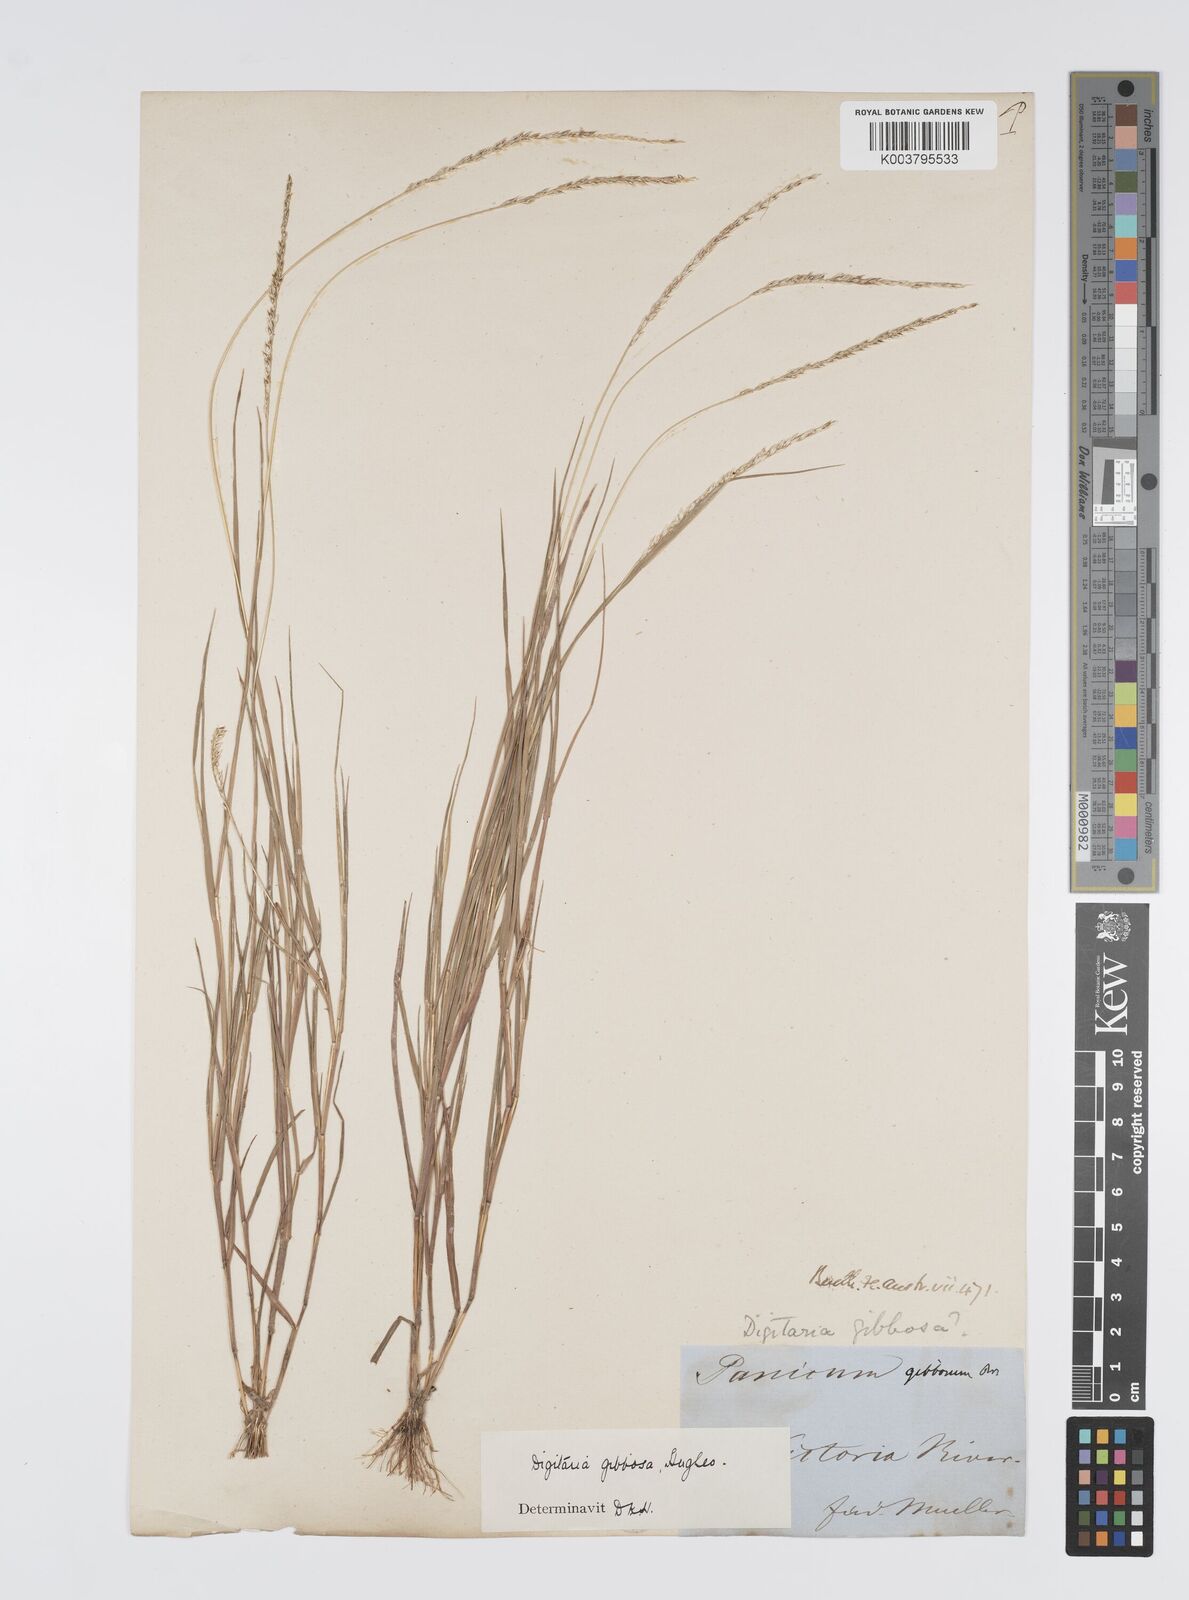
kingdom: Plantae
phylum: Tracheophyta
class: Liliopsida
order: Poales
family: Poaceae
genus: Digitaria
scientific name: Digitaria gibbosa
